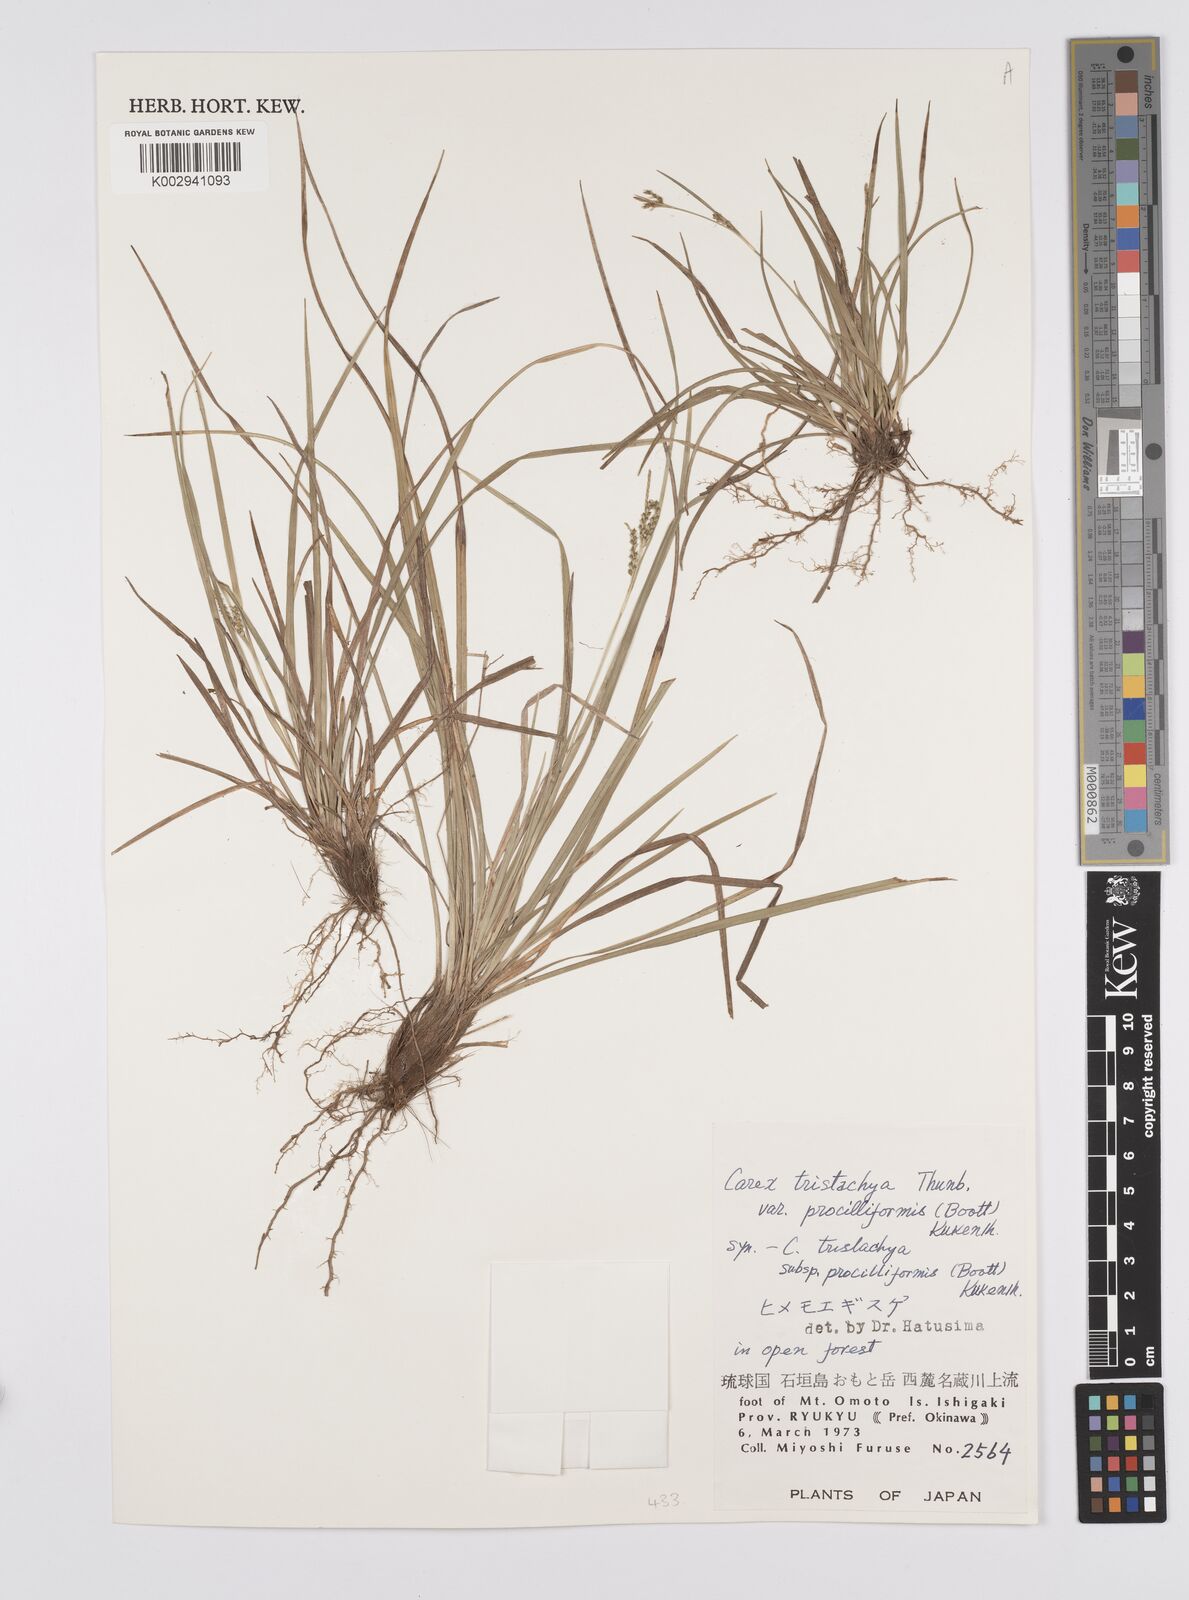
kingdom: Plantae
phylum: Tracheophyta
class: Liliopsida
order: Poales
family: Cyperaceae
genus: Carex
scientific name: Carex tristachya
